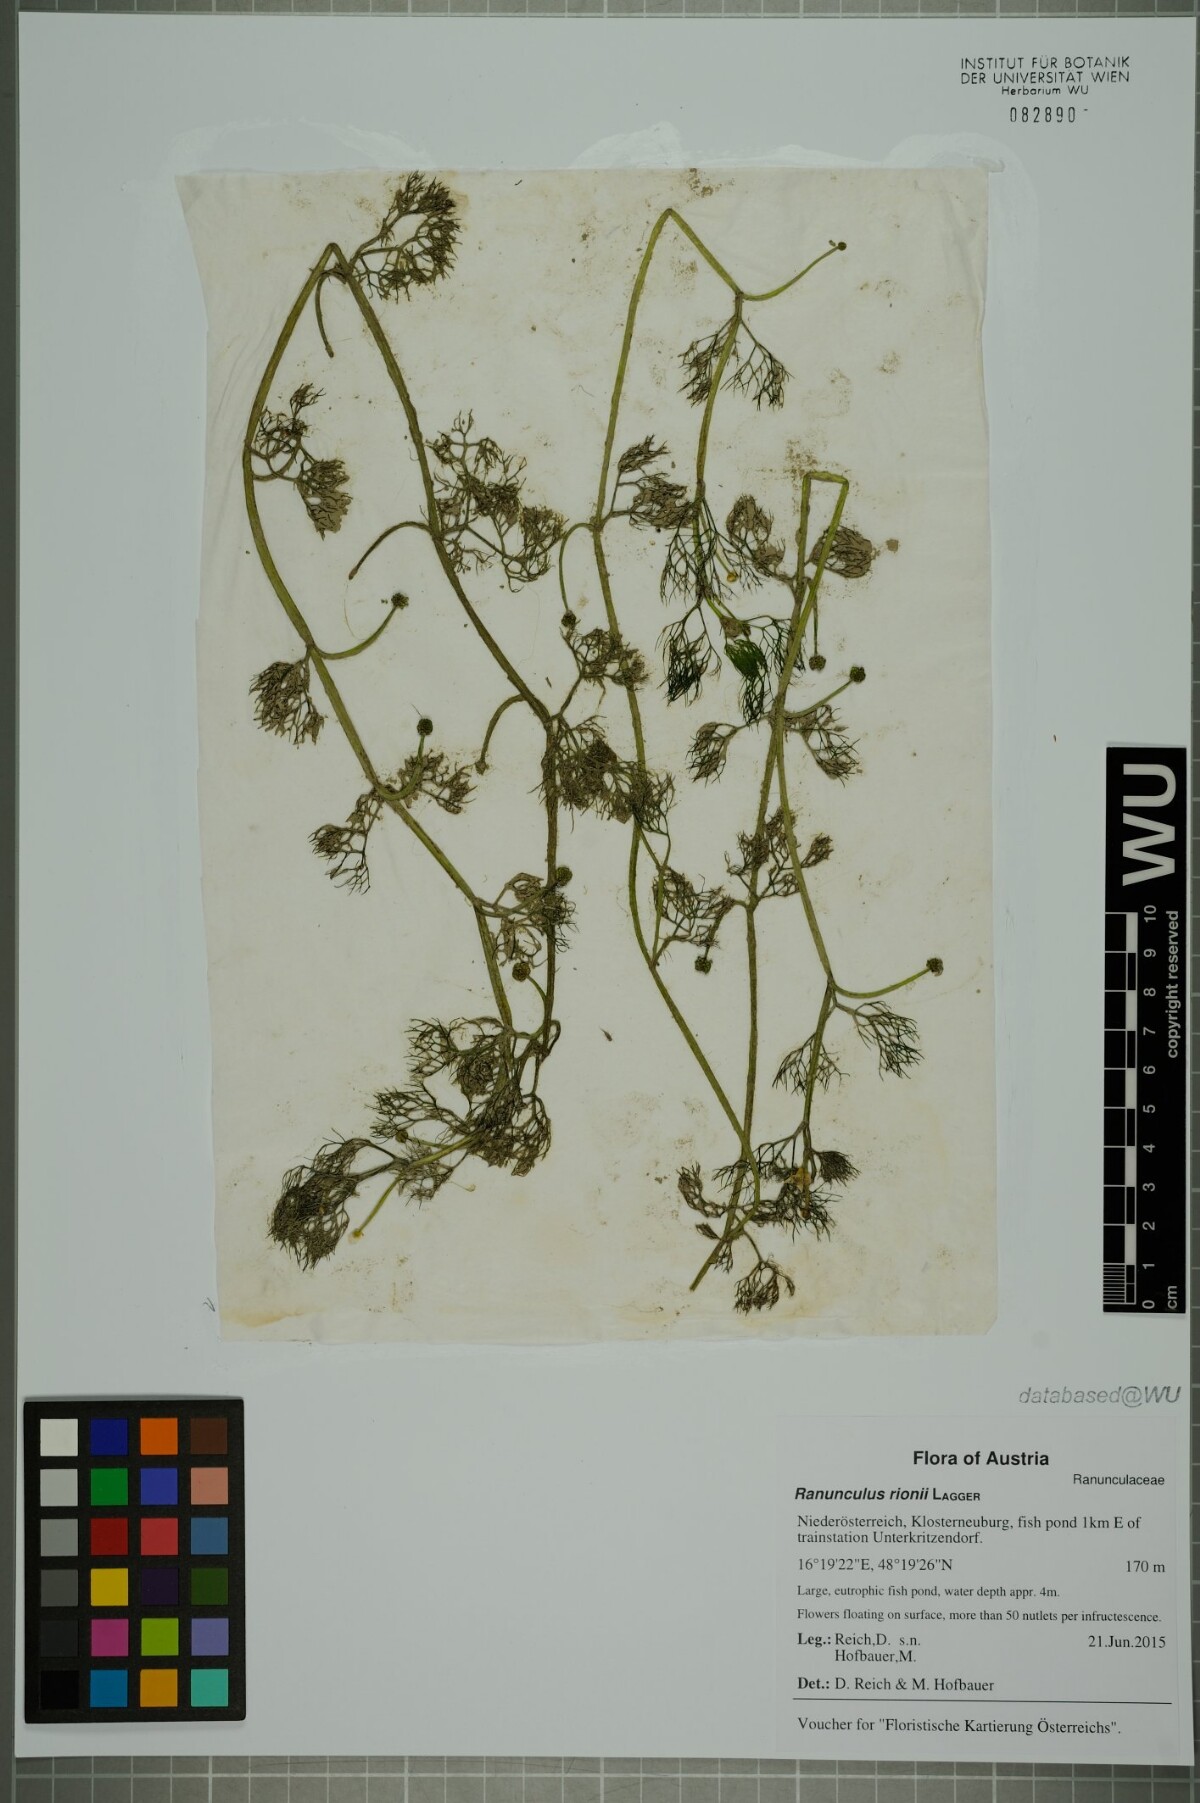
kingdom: Plantae
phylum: Tracheophyta
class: Magnoliopsida
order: Ranunculales
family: Ranunculaceae
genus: Ranunculus
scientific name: Ranunculus trichophyllus
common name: Thread-leaved water-crowfoot
